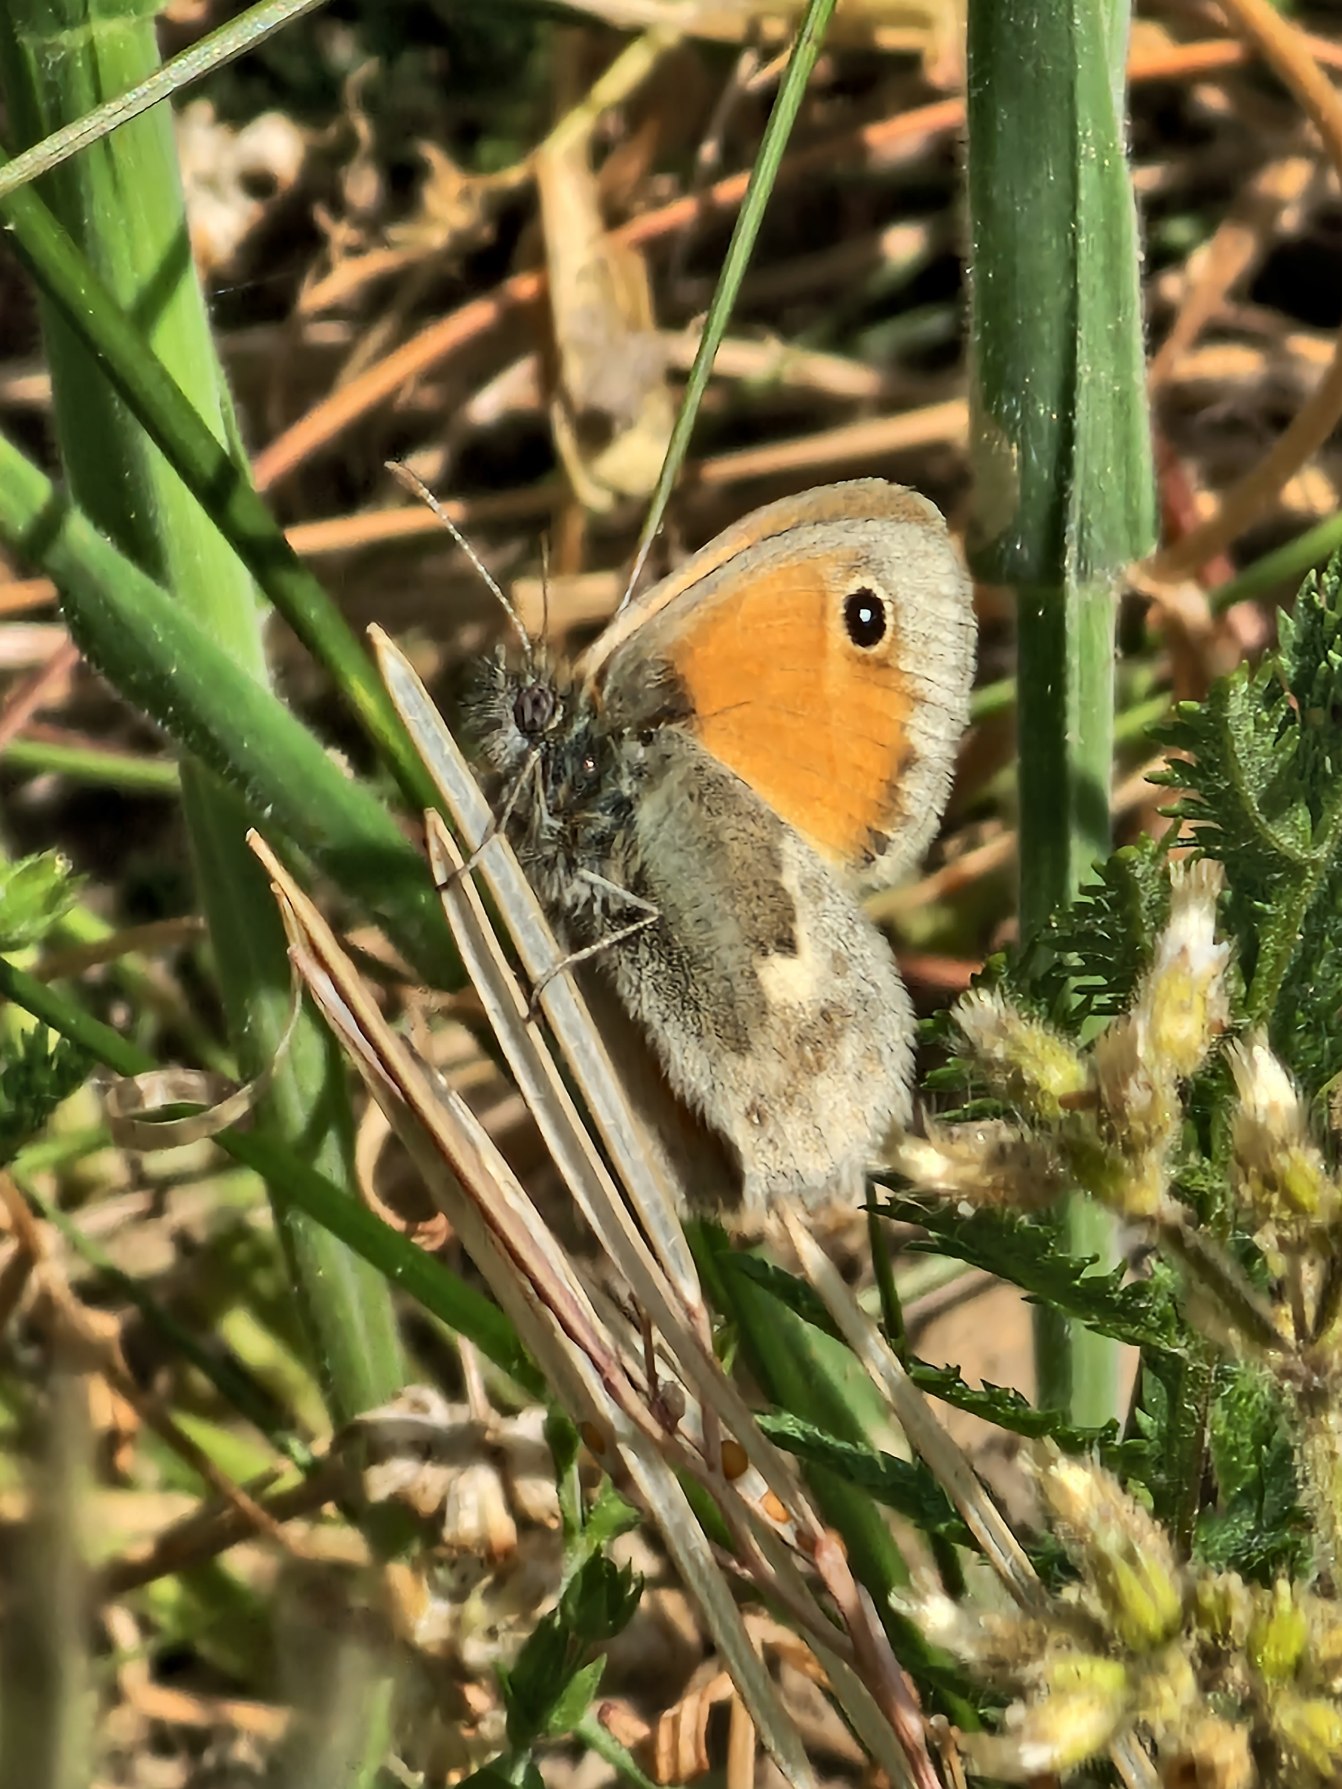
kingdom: Animalia
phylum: Arthropoda
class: Insecta
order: Lepidoptera
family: Nymphalidae
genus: Coenonympha
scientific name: Coenonympha pamphilus
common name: Okkergul randøje
